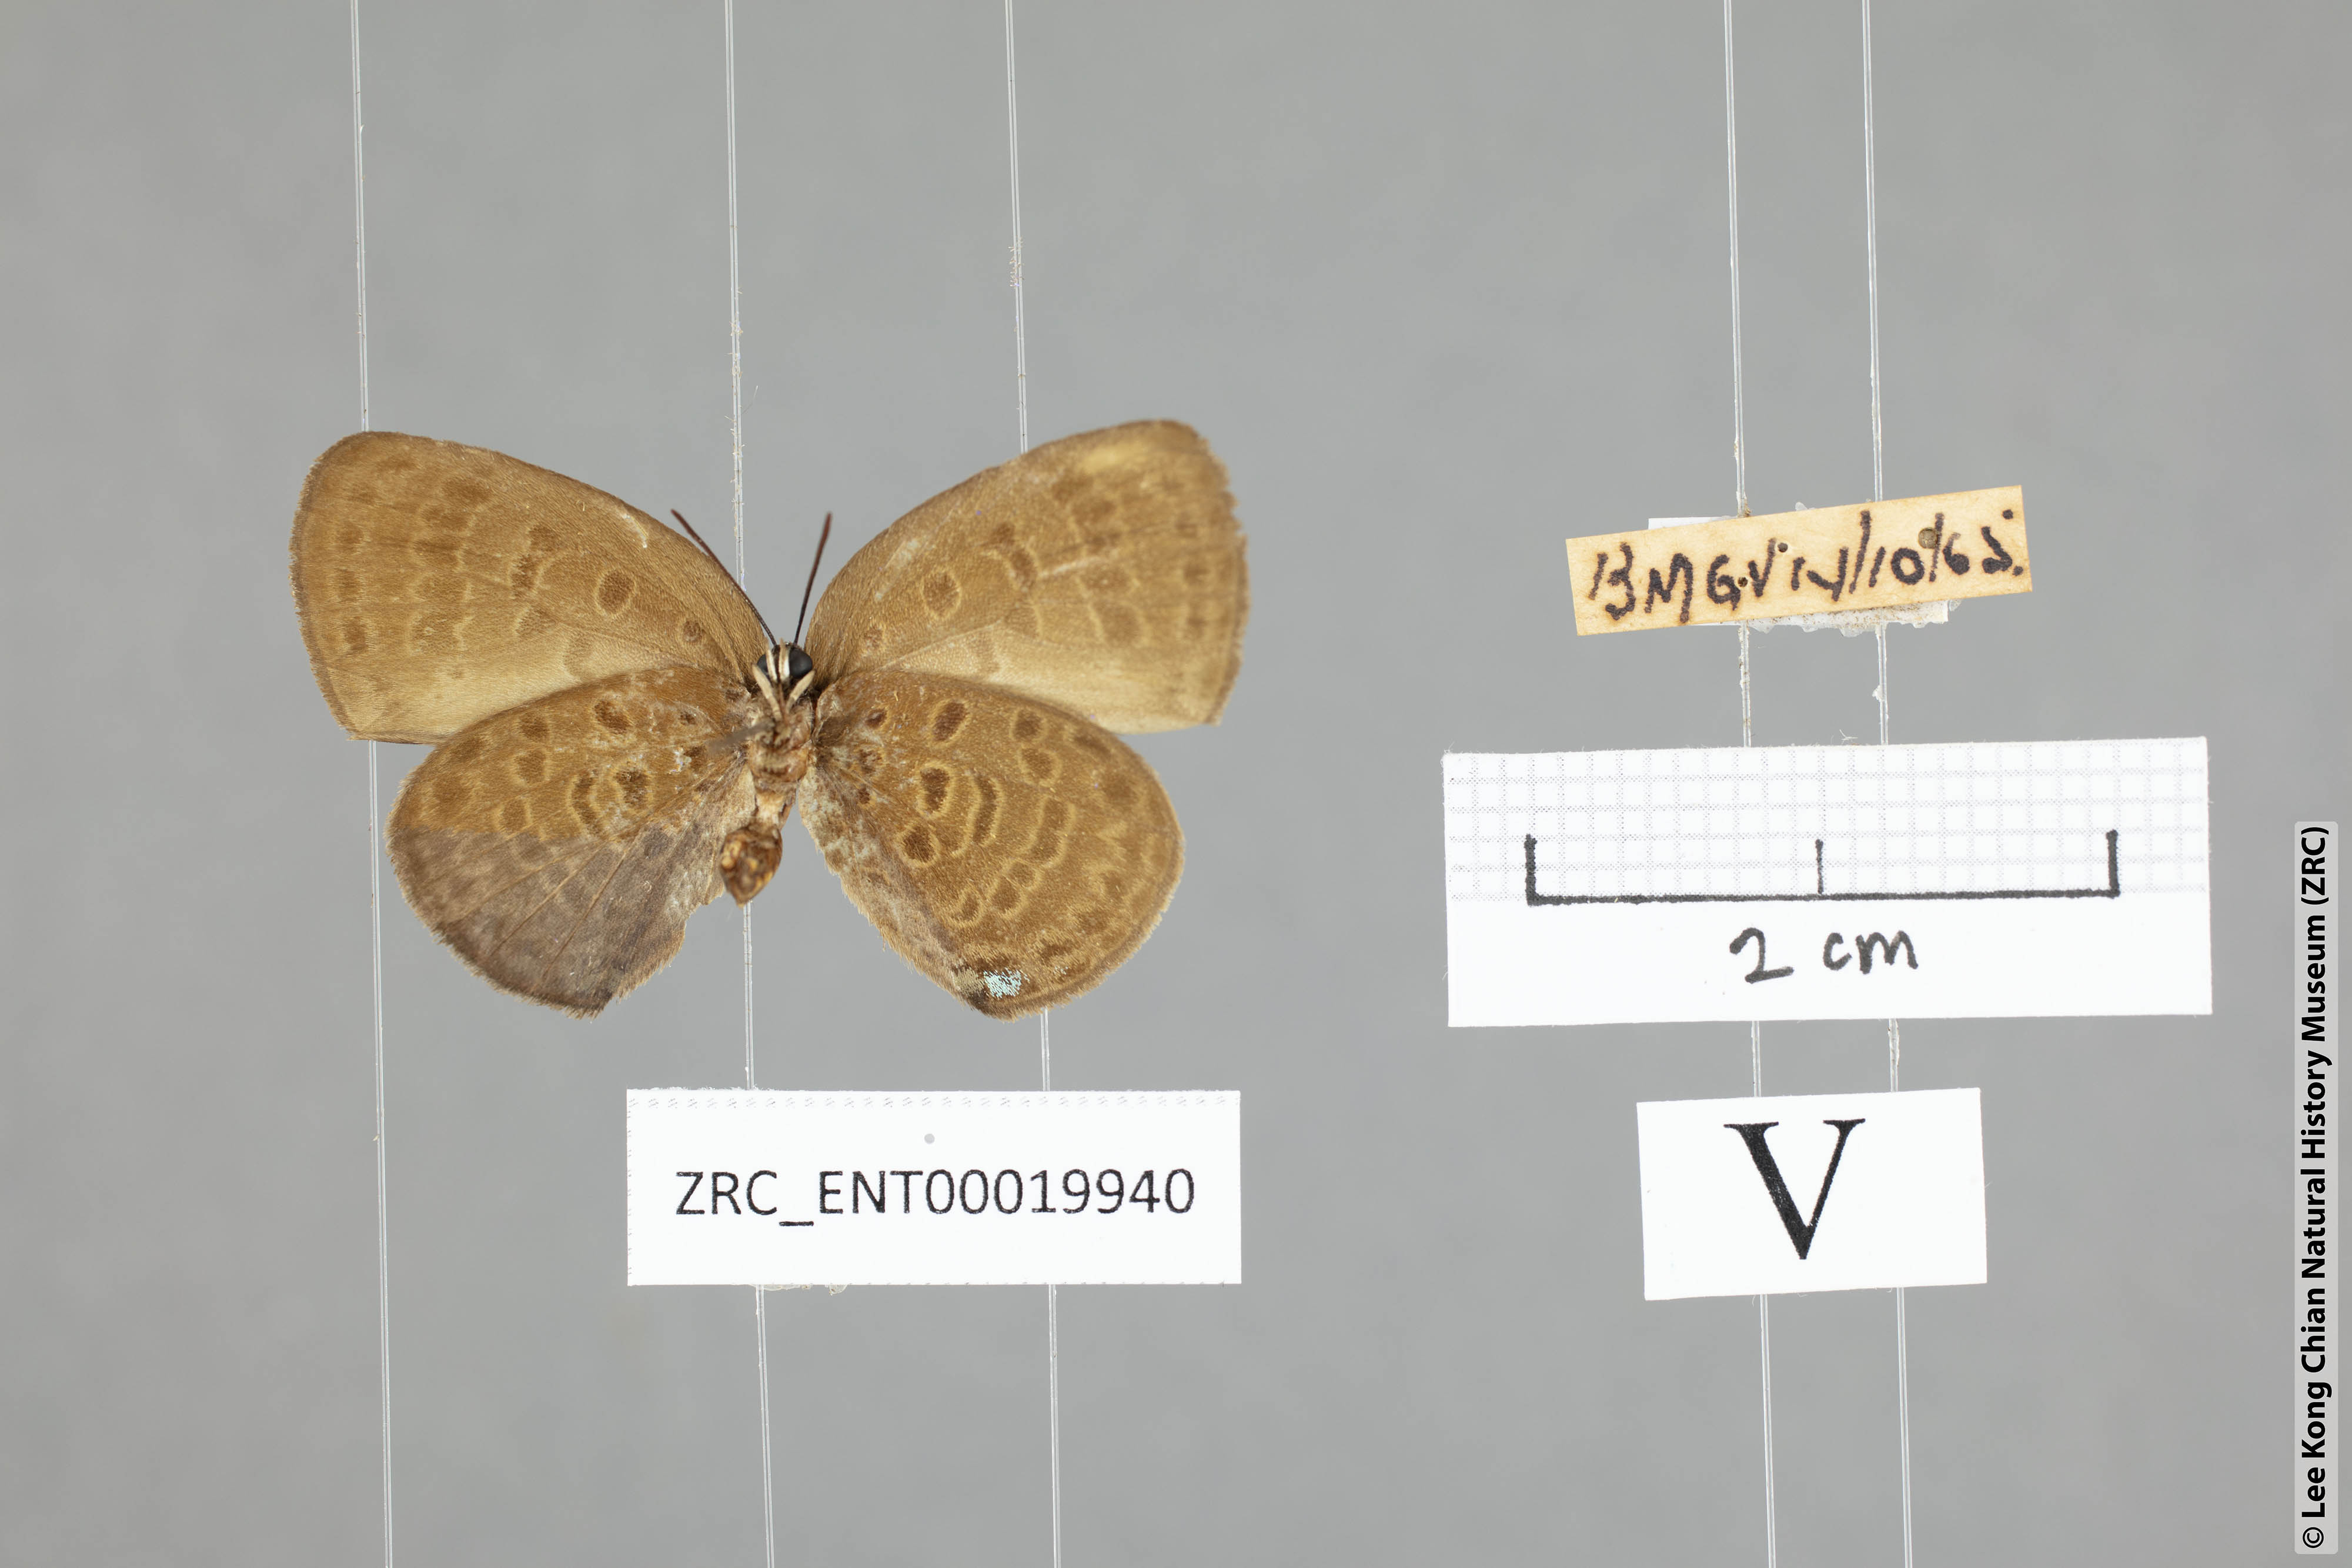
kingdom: Animalia
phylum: Arthropoda
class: Insecta
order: Lepidoptera
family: Lycaenidae
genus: Arhopala
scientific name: Arhopala zylda
